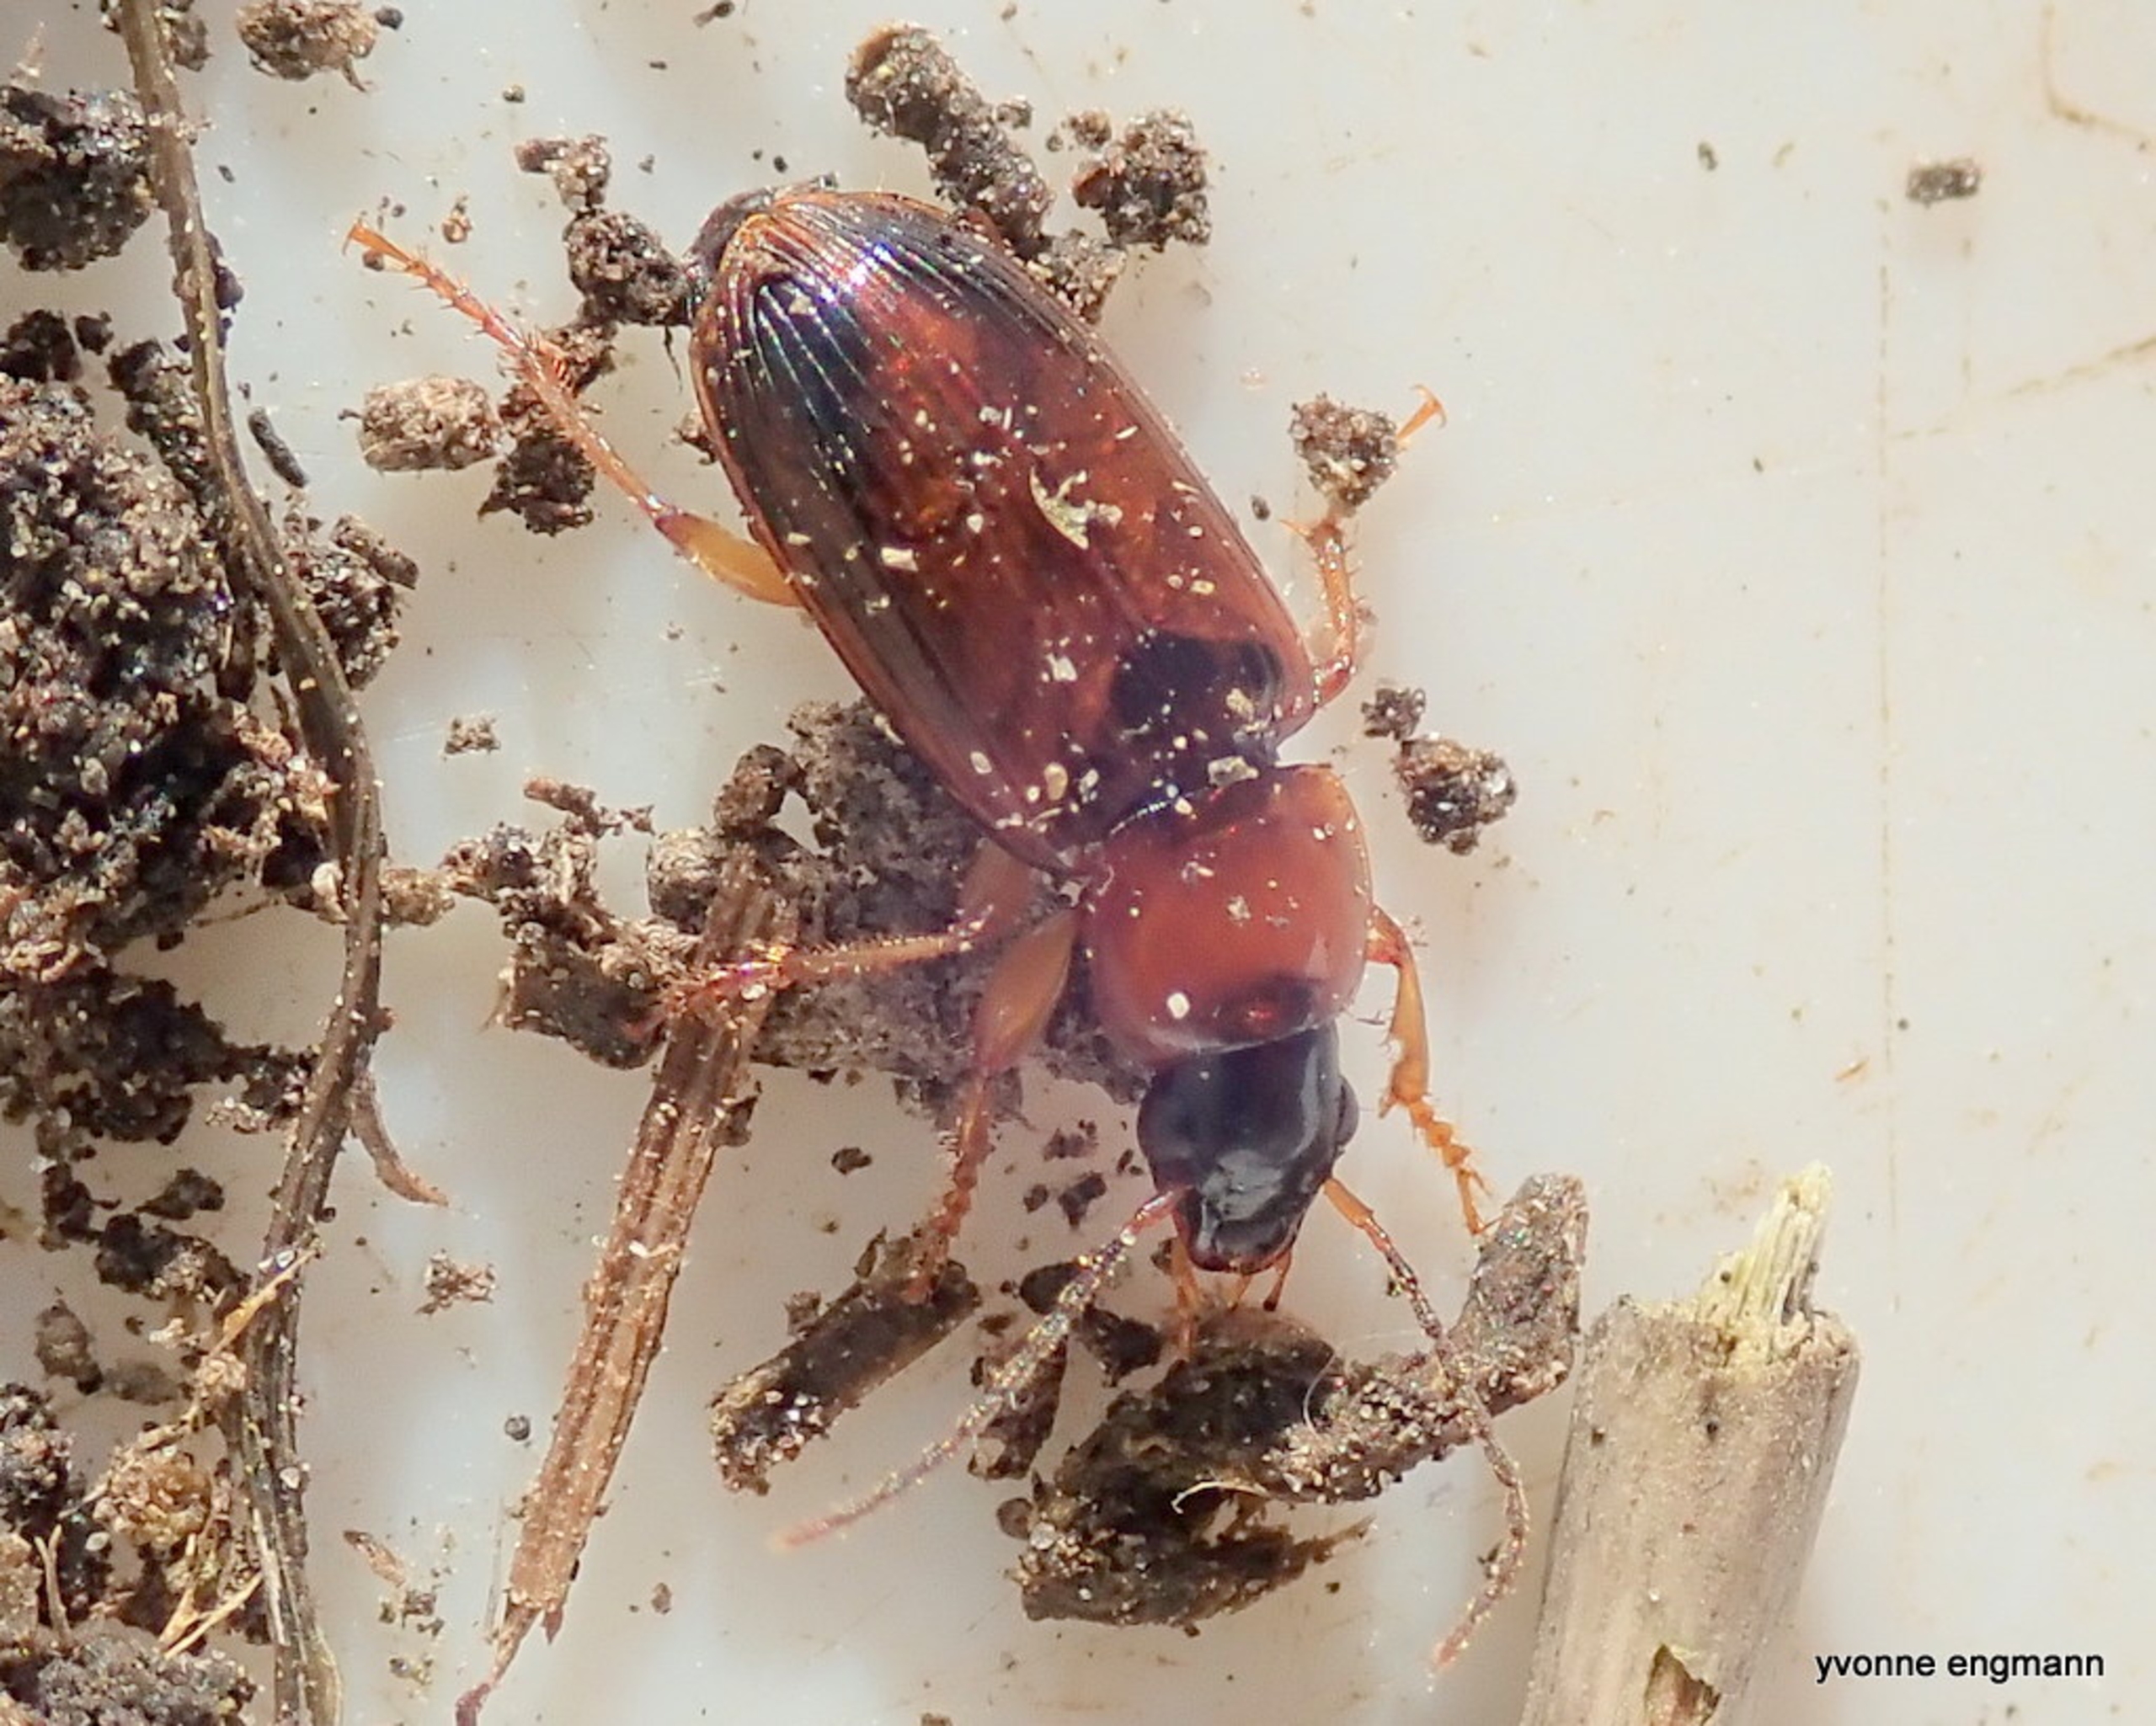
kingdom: Animalia
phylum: Arthropoda
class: Insecta
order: Coleoptera
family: Carabidae
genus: Stenolophus
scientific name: Stenolophus skrimshiranus
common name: Lys damløber
